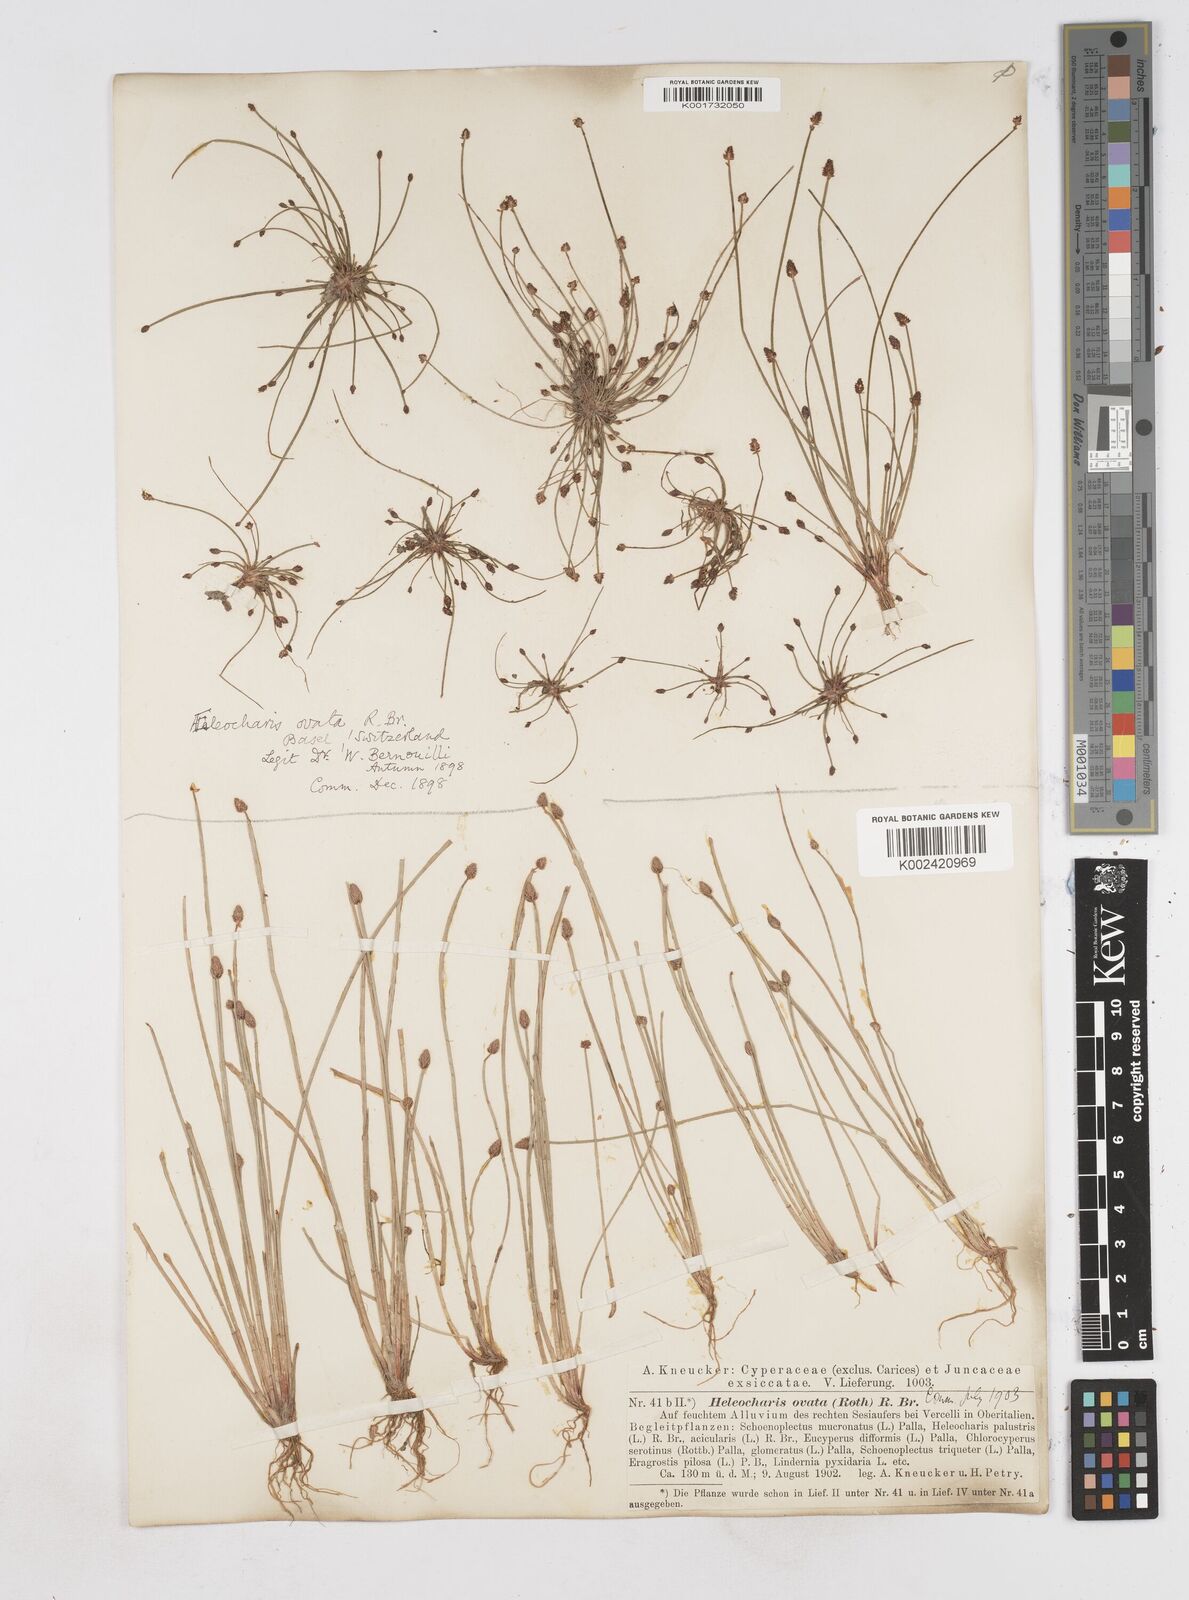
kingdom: Plantae
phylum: Tracheophyta
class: Liliopsida
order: Poales
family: Cyperaceae
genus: Eleocharis
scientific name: Eleocharis ovata
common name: Oval spike-rush
